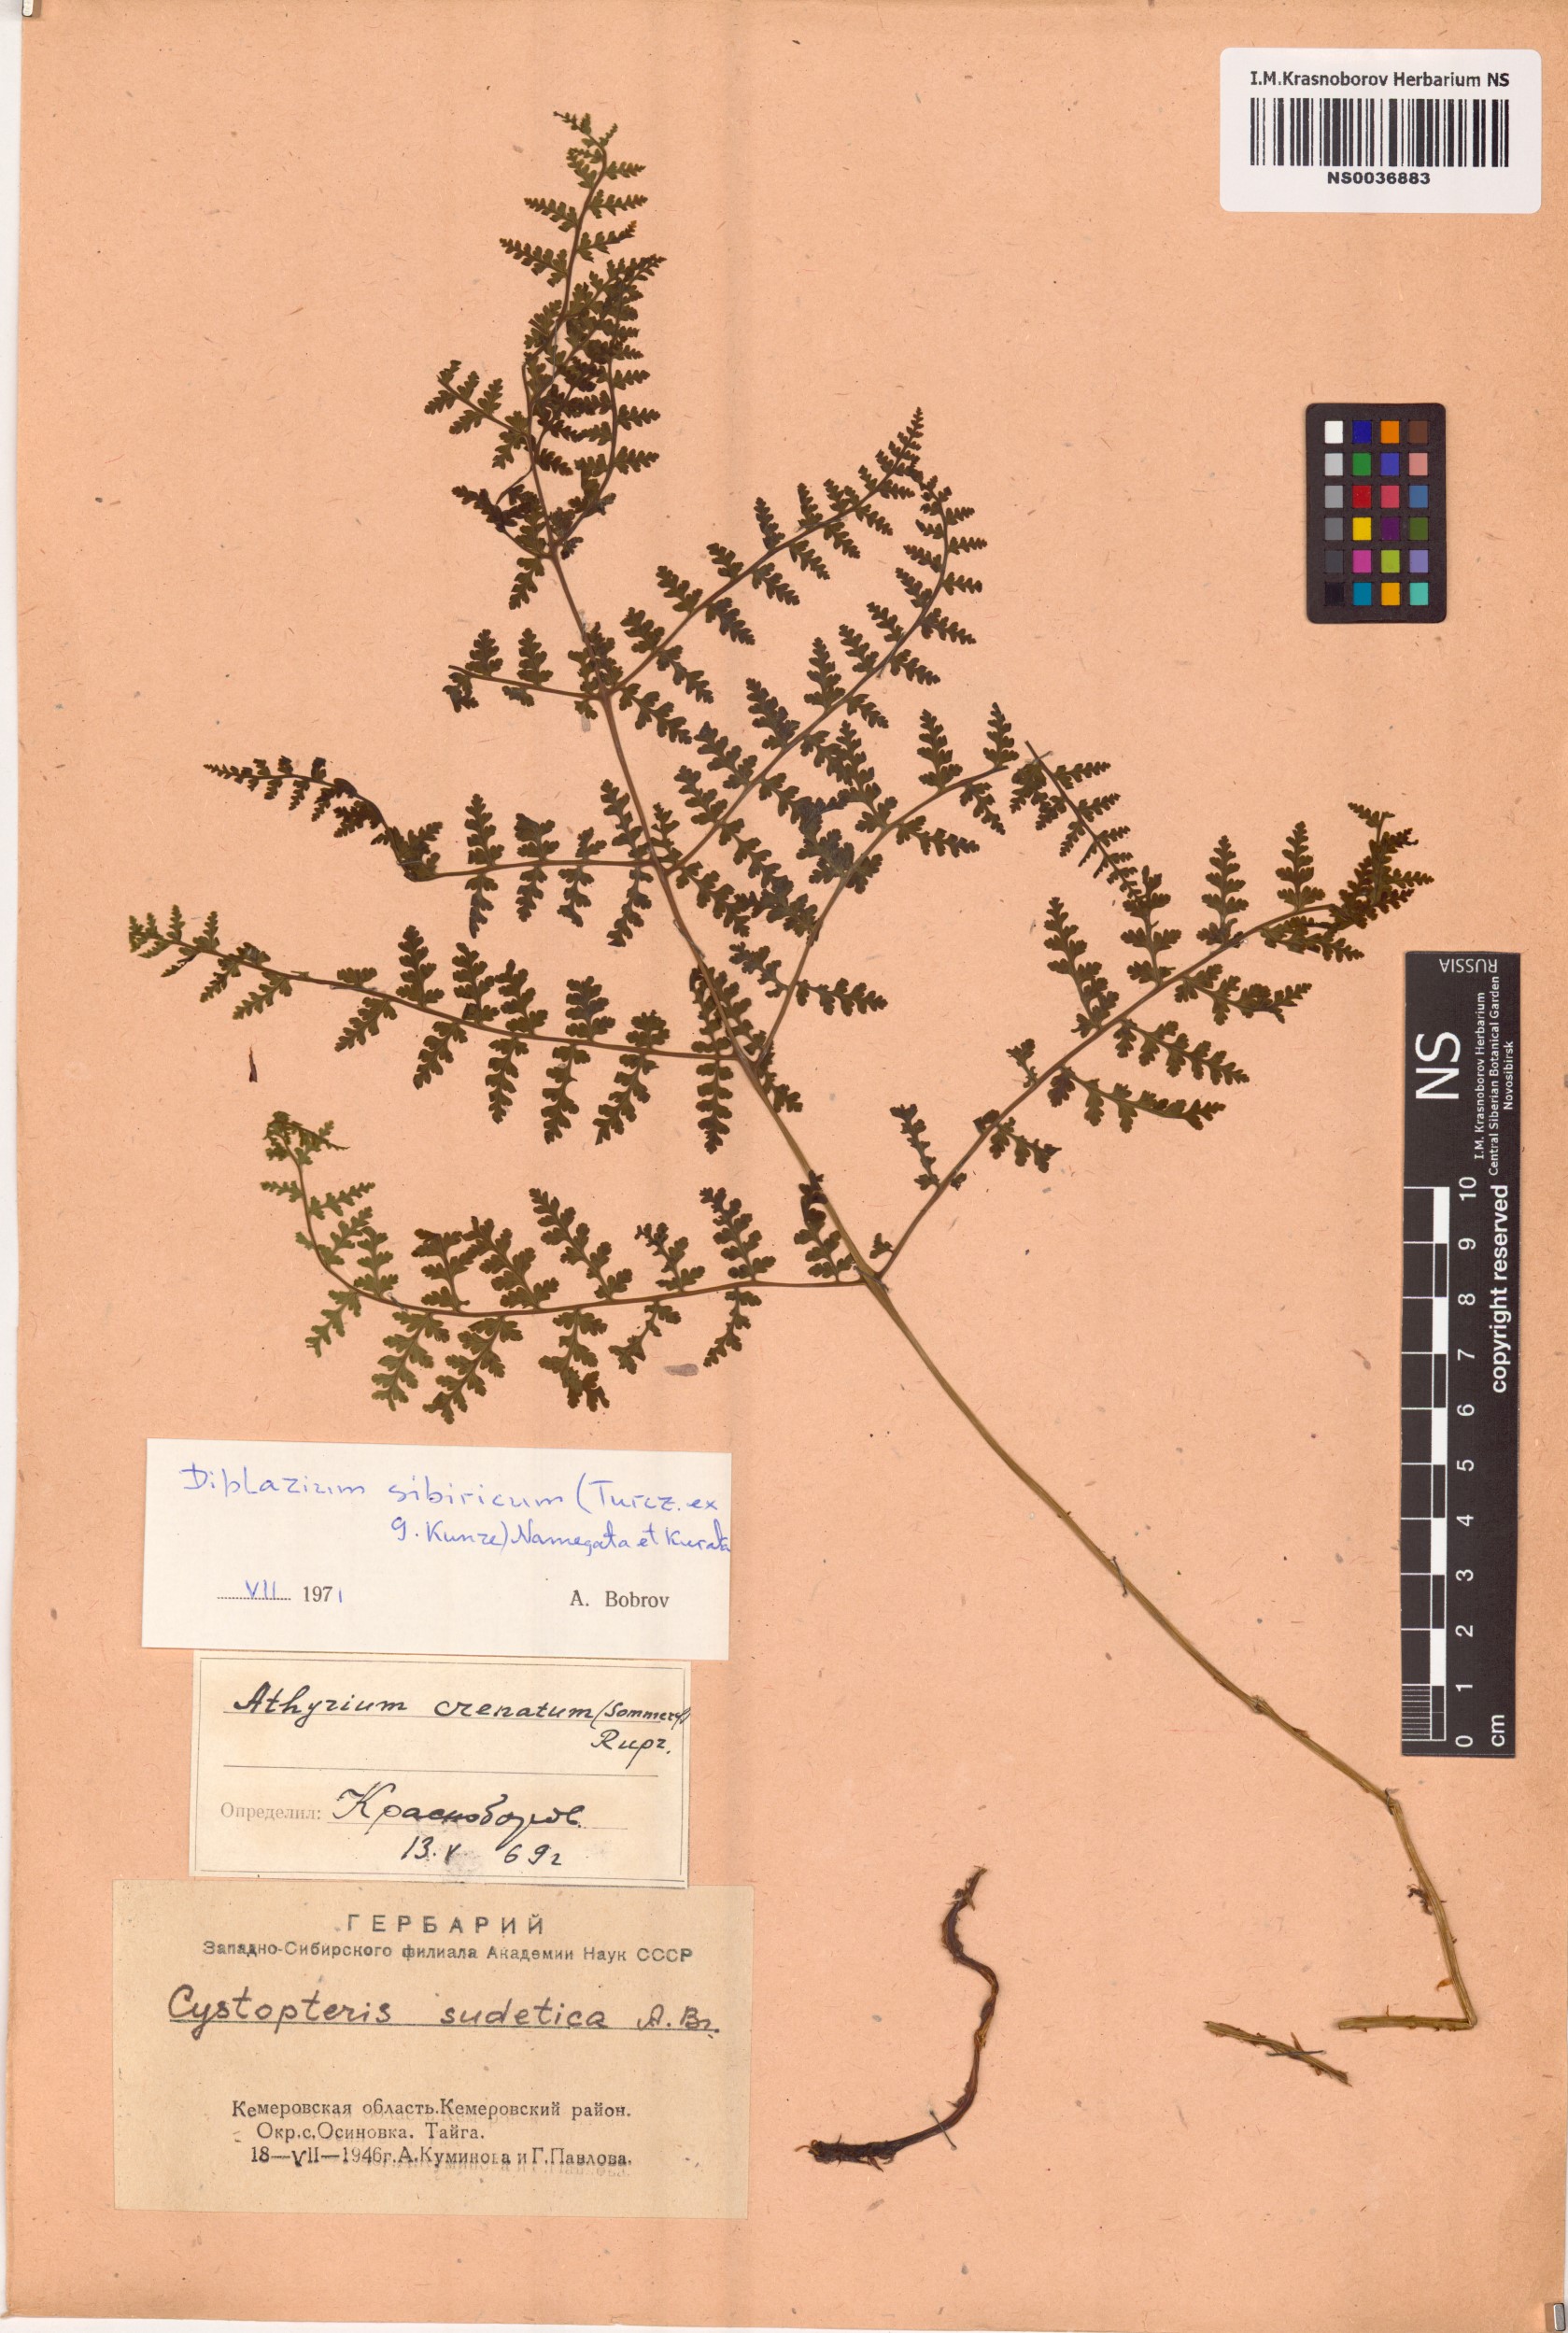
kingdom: Plantae
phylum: Tracheophyta
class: Polypodiopsida
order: Polypodiales
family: Athyriaceae
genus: Diplazium
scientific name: Diplazium sibiricum
